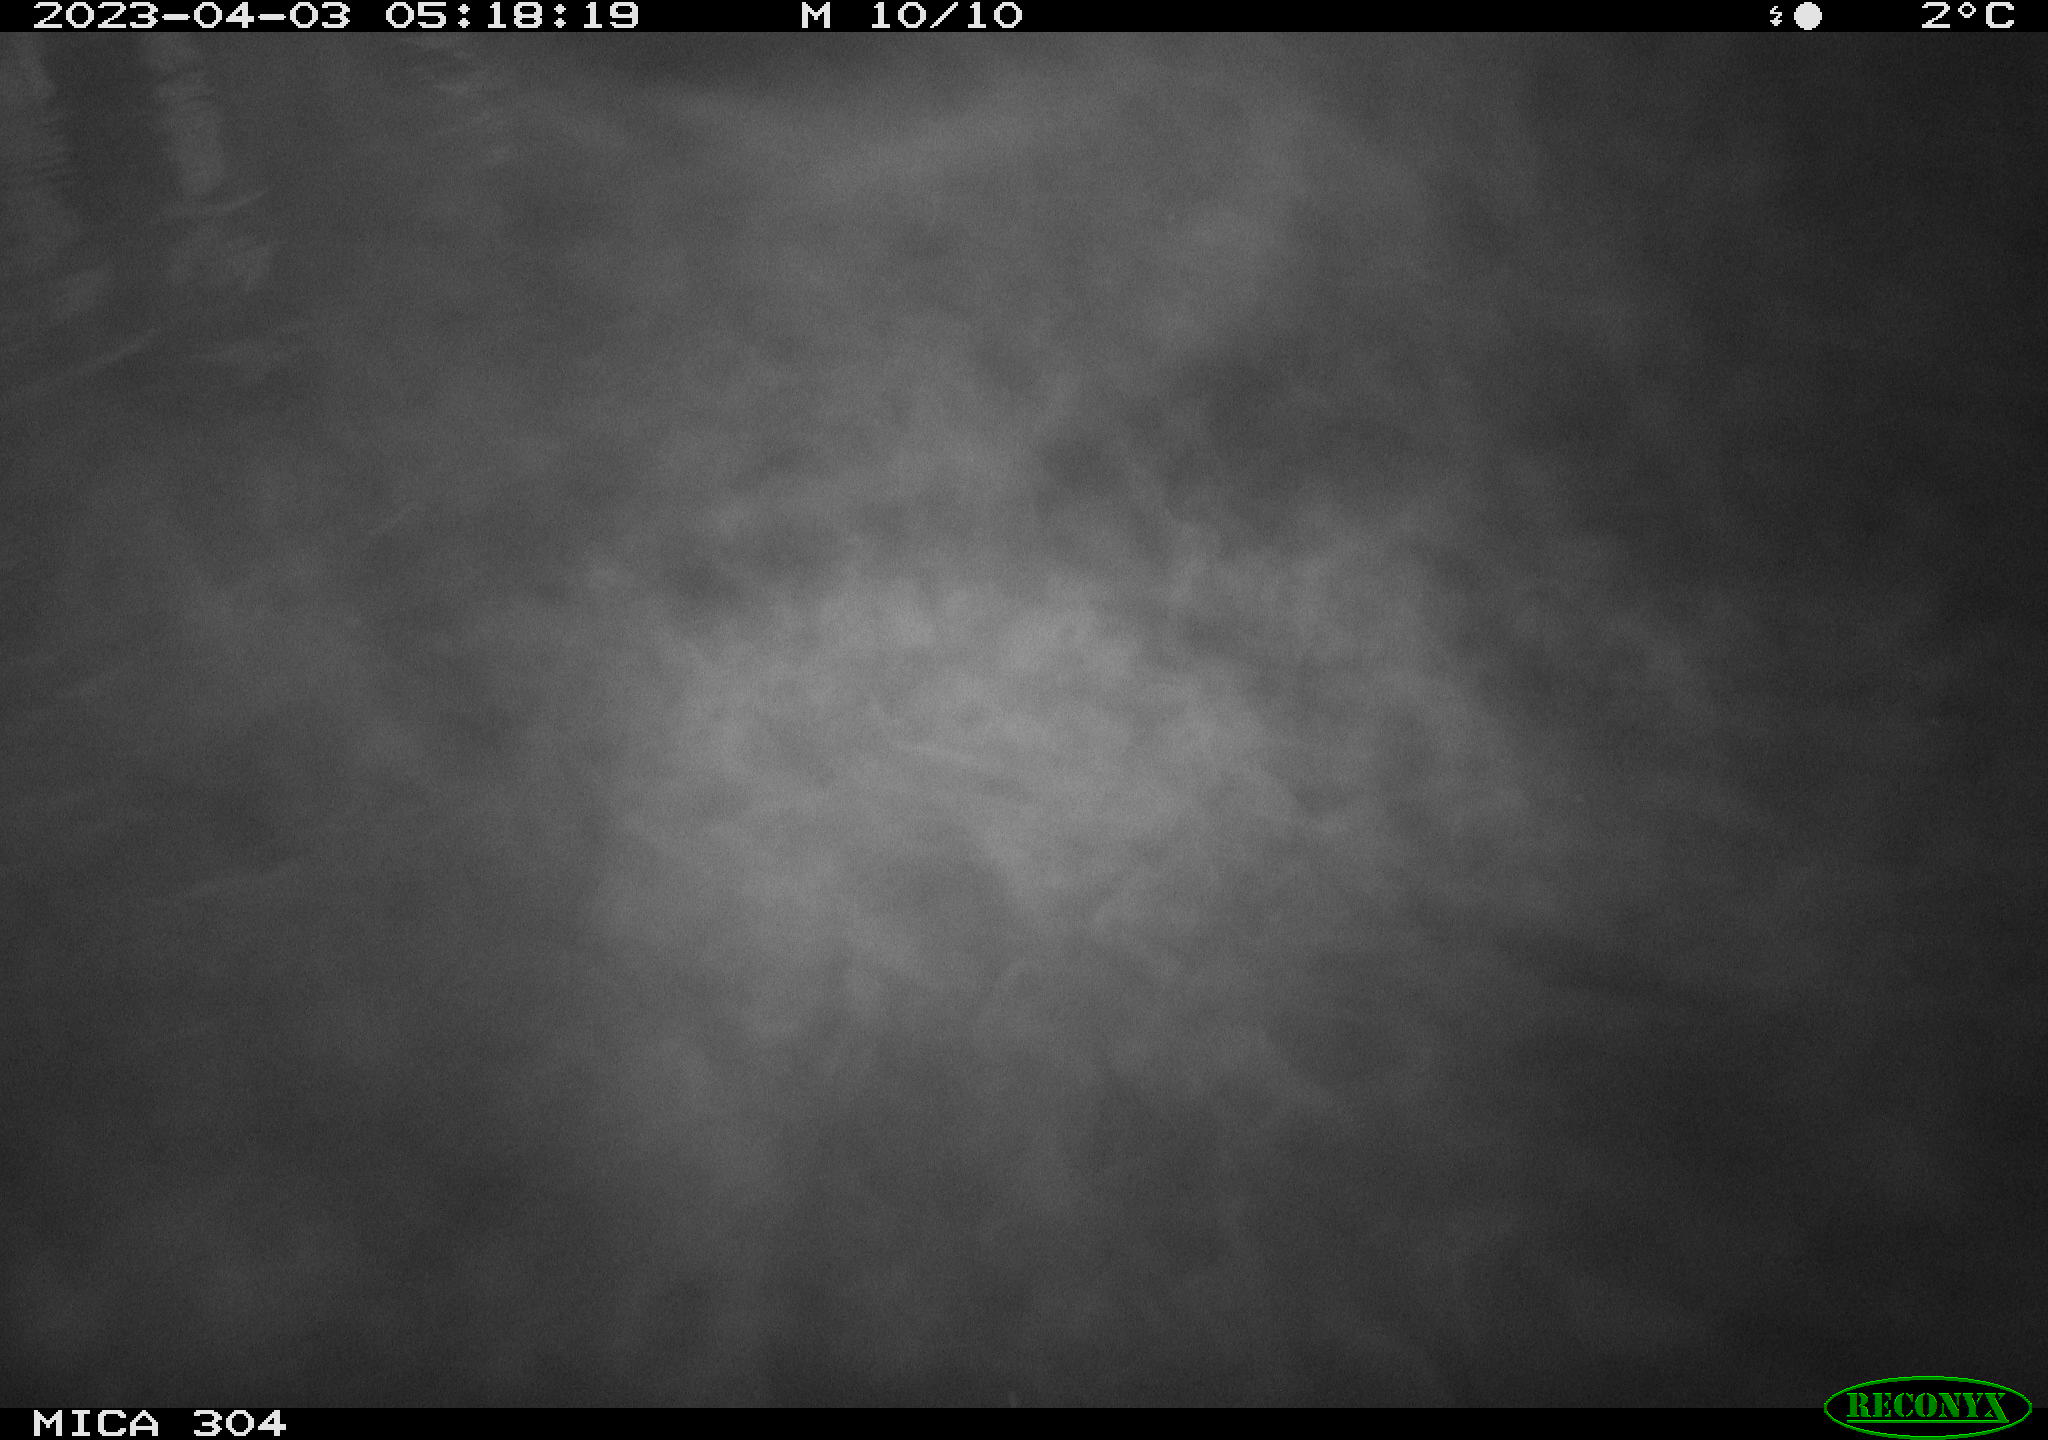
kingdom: Animalia
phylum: Chordata
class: Mammalia
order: Rodentia
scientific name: Rodentia
